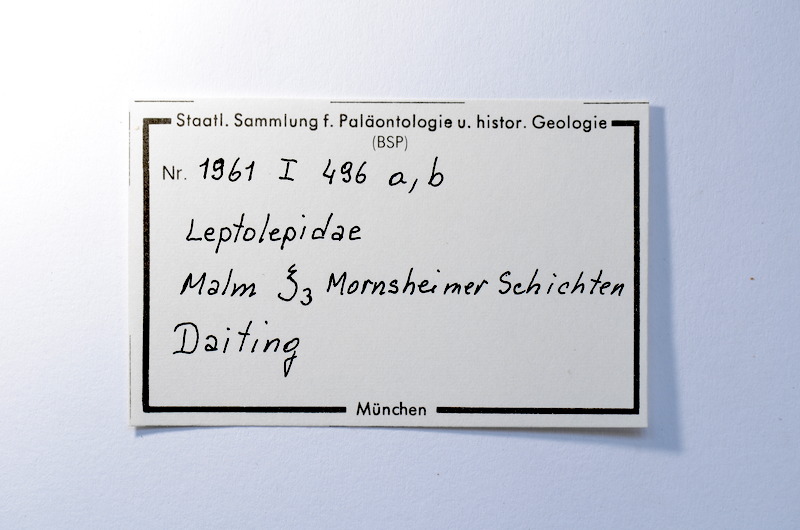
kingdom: Animalia
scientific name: Animalia
